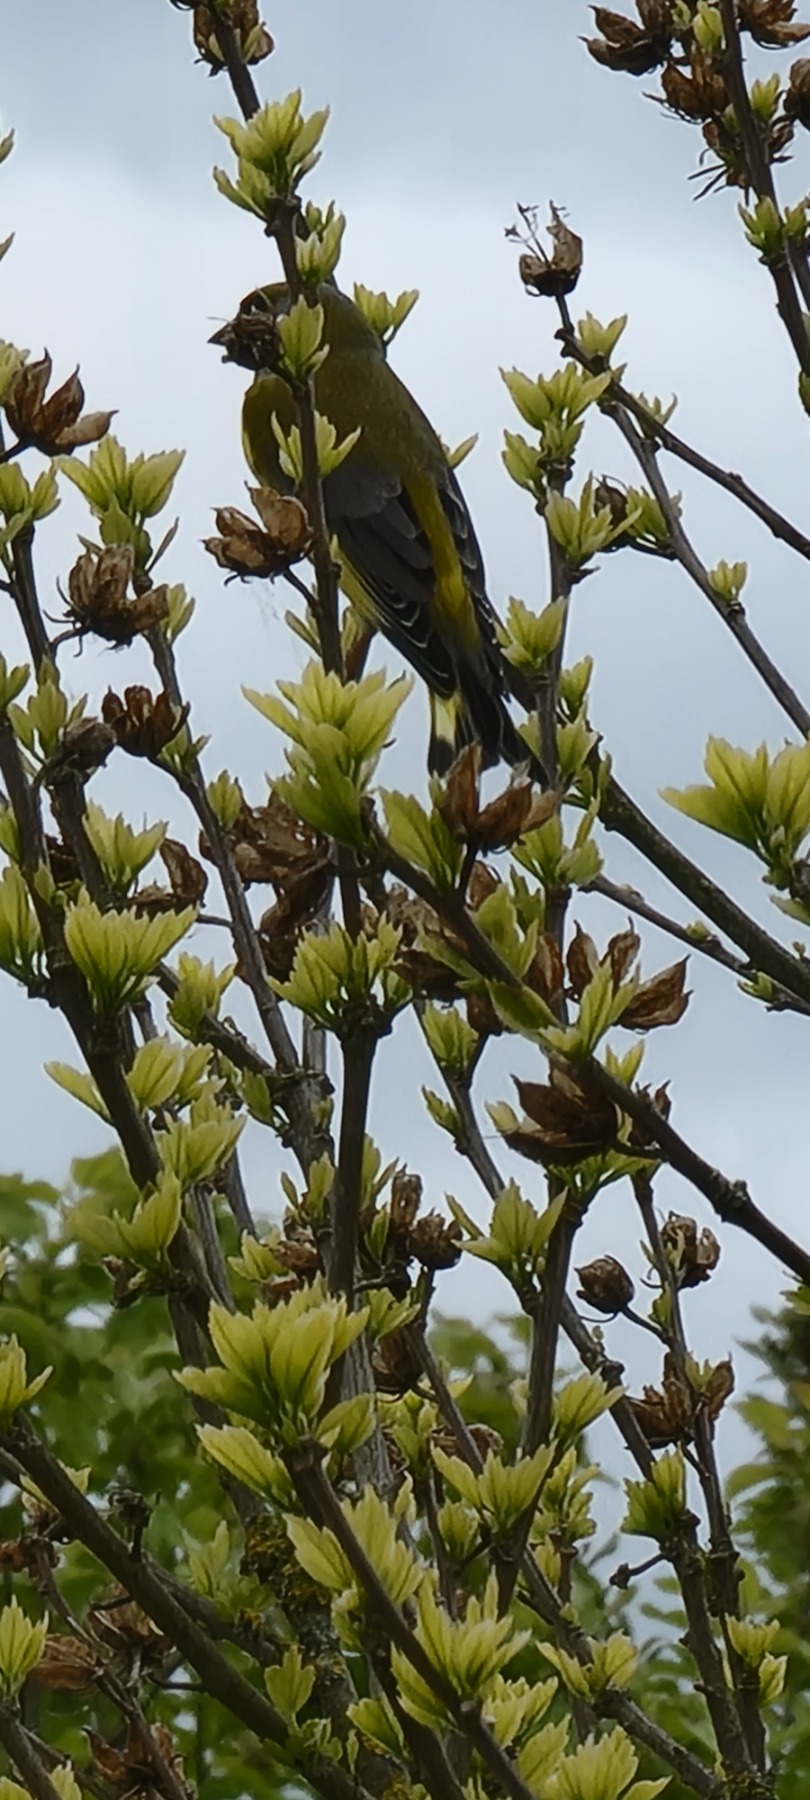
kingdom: Plantae
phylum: Tracheophyta
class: Liliopsida
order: Poales
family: Poaceae
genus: Chloris
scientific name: Chloris chloris
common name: Grønirisk
